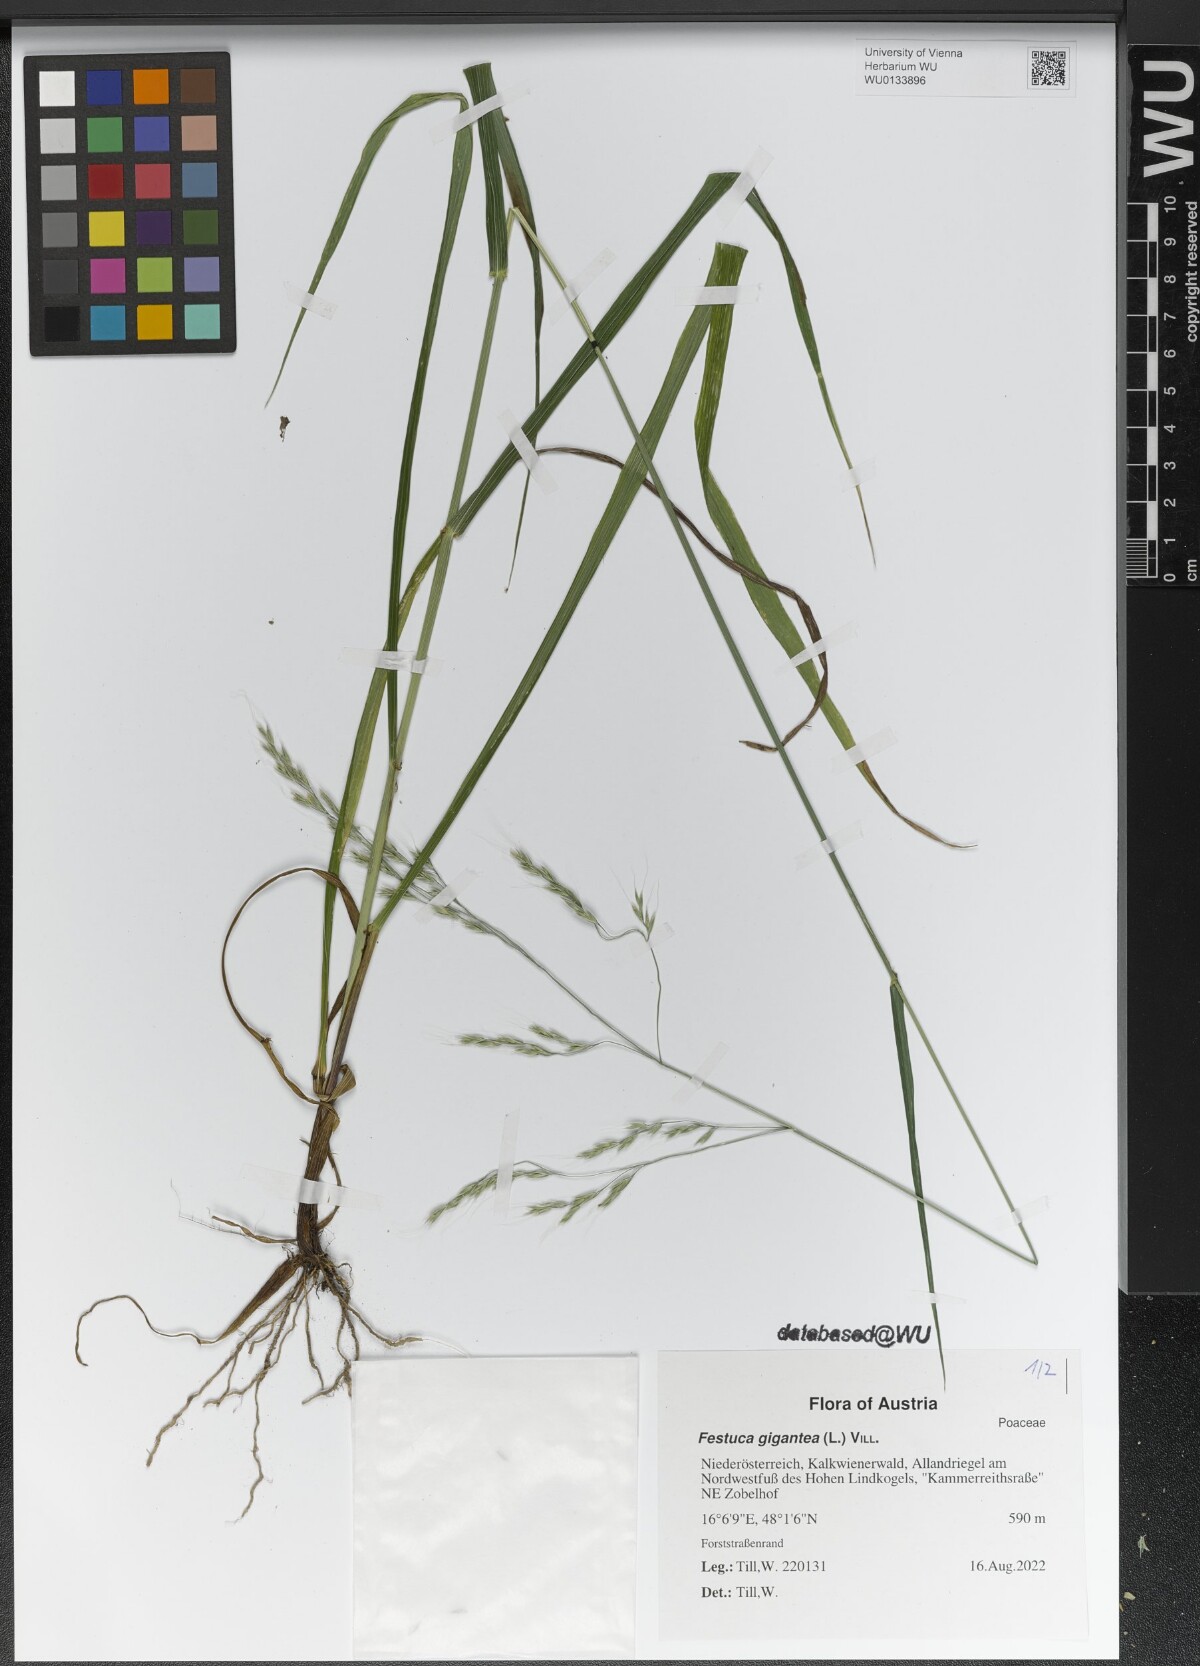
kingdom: Plantae
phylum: Tracheophyta
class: Liliopsida
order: Poales
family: Poaceae
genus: Lolium
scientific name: Lolium giganteum
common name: Giant fescue
